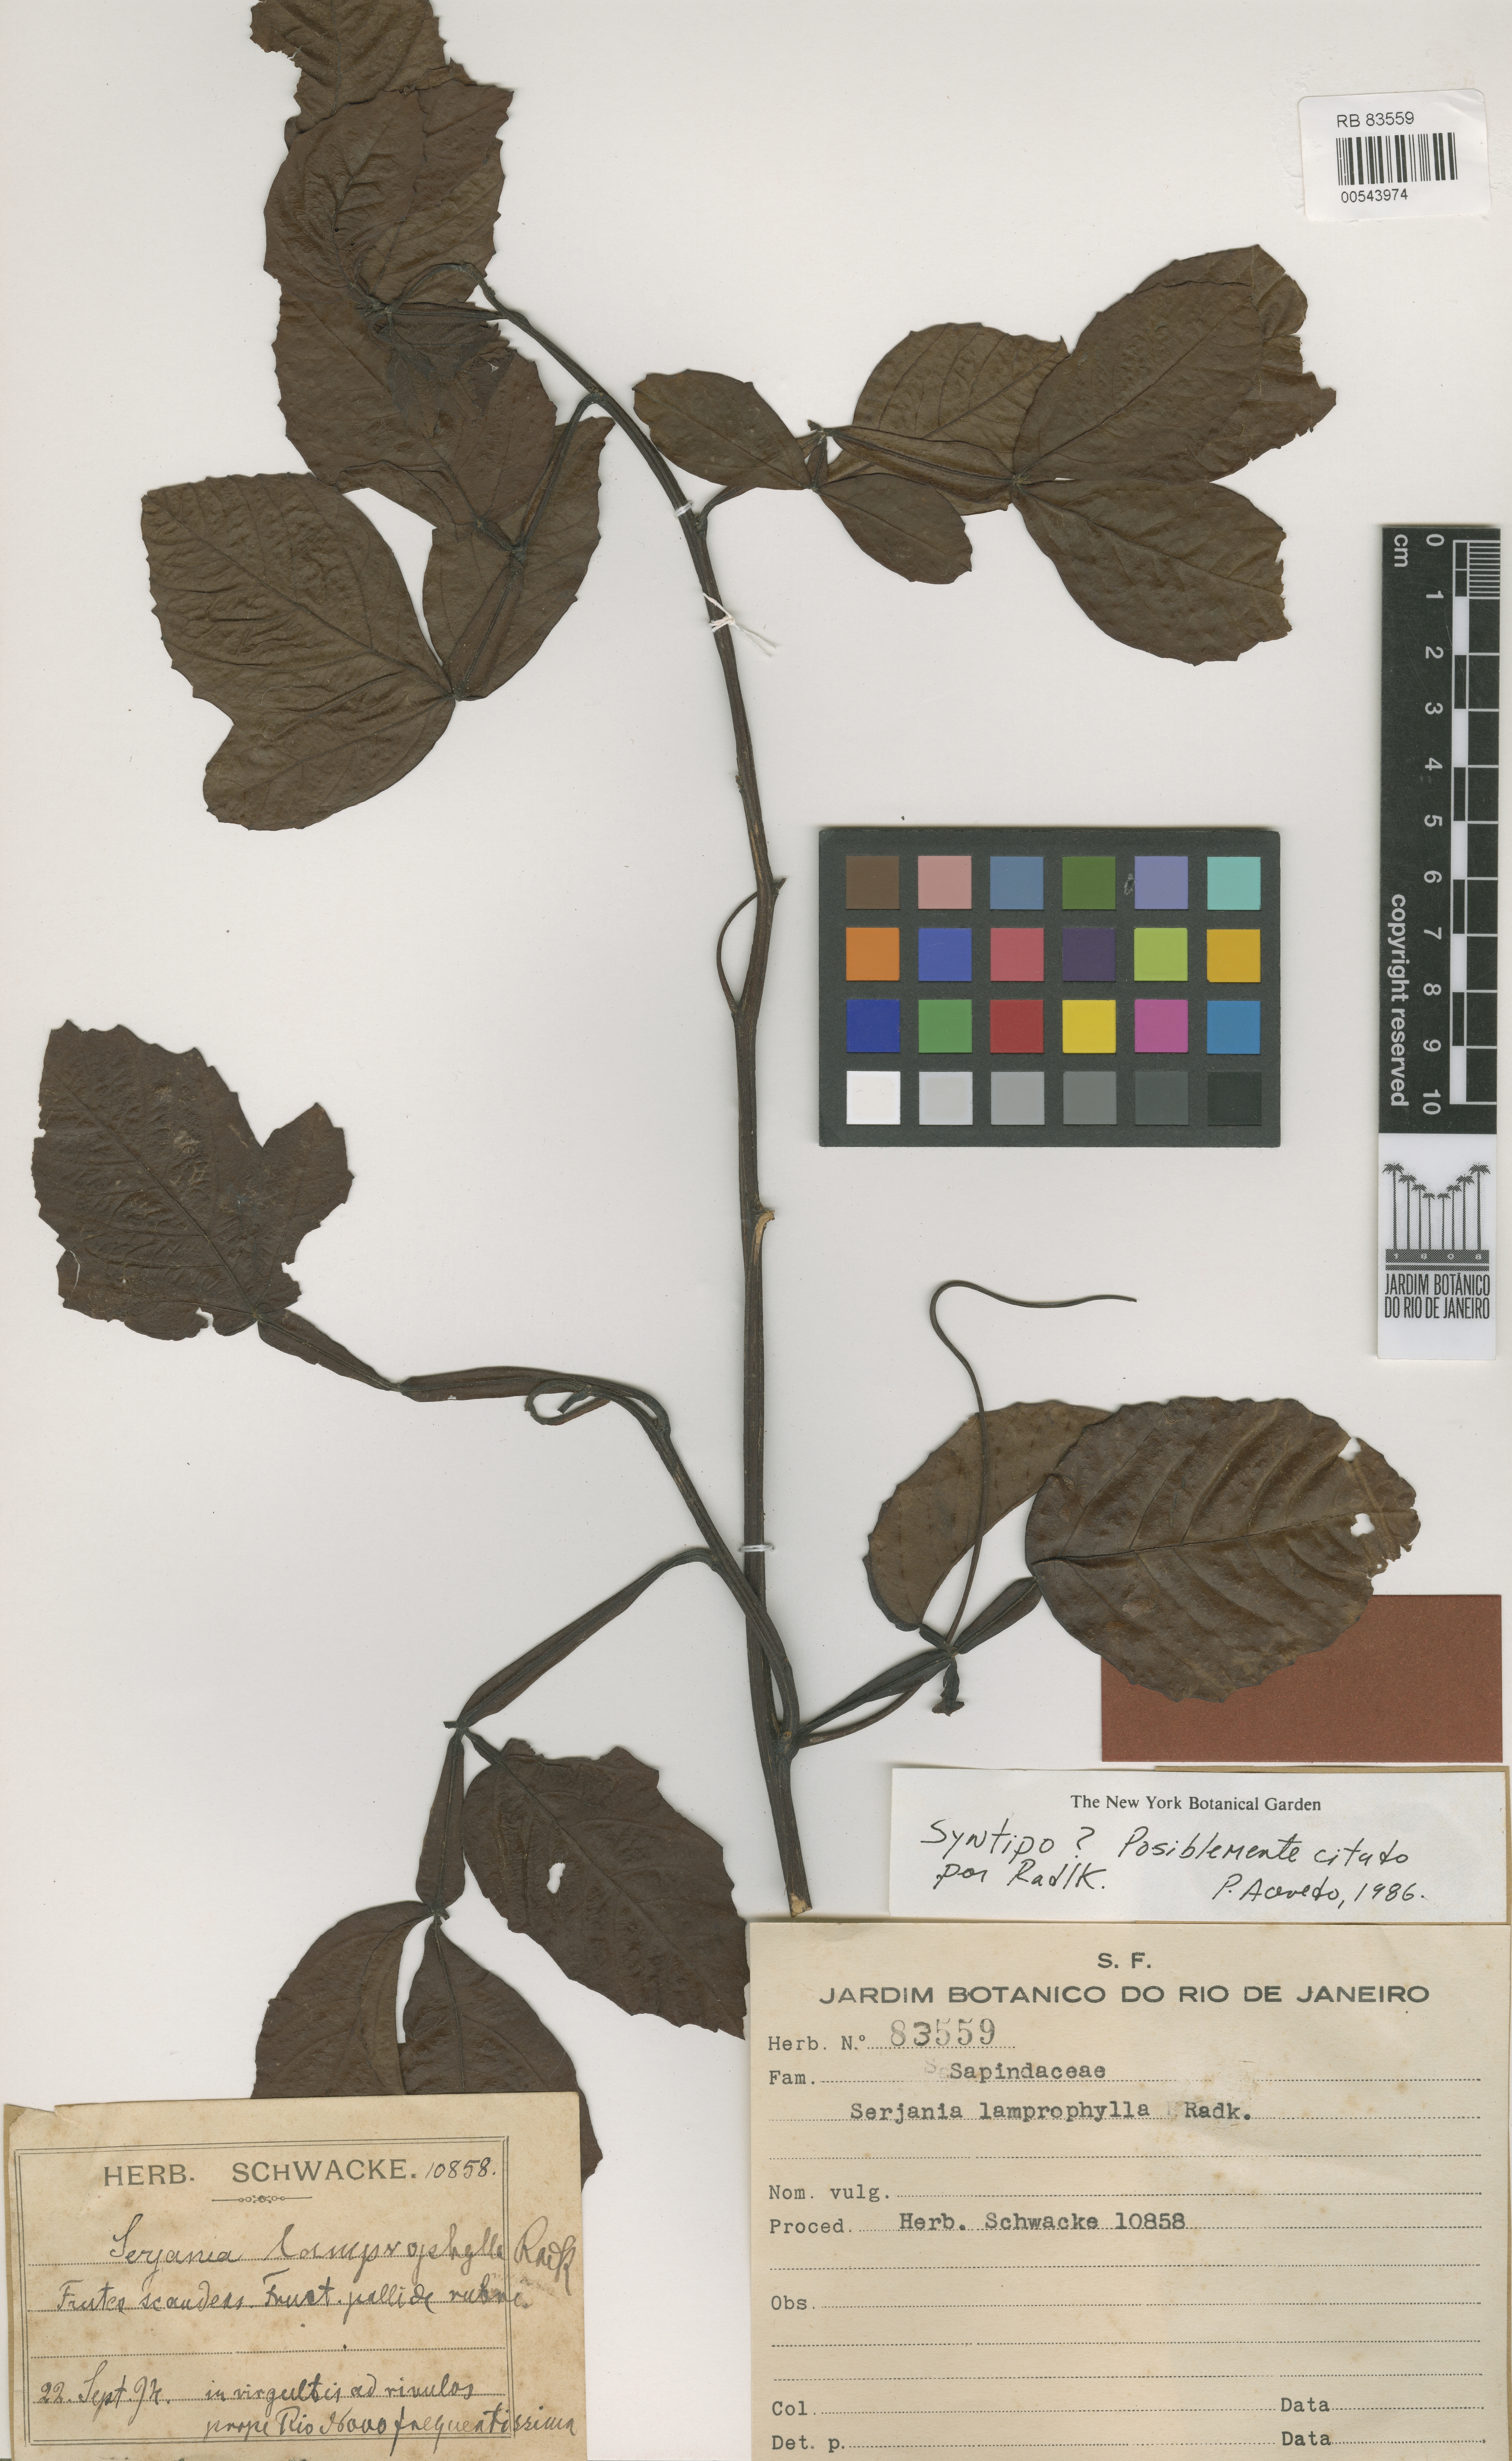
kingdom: Plantae
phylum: Tracheophyta
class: Magnoliopsida
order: Sapindales
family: Sapindaceae
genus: Serjania
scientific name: Serjania lamprophylla
